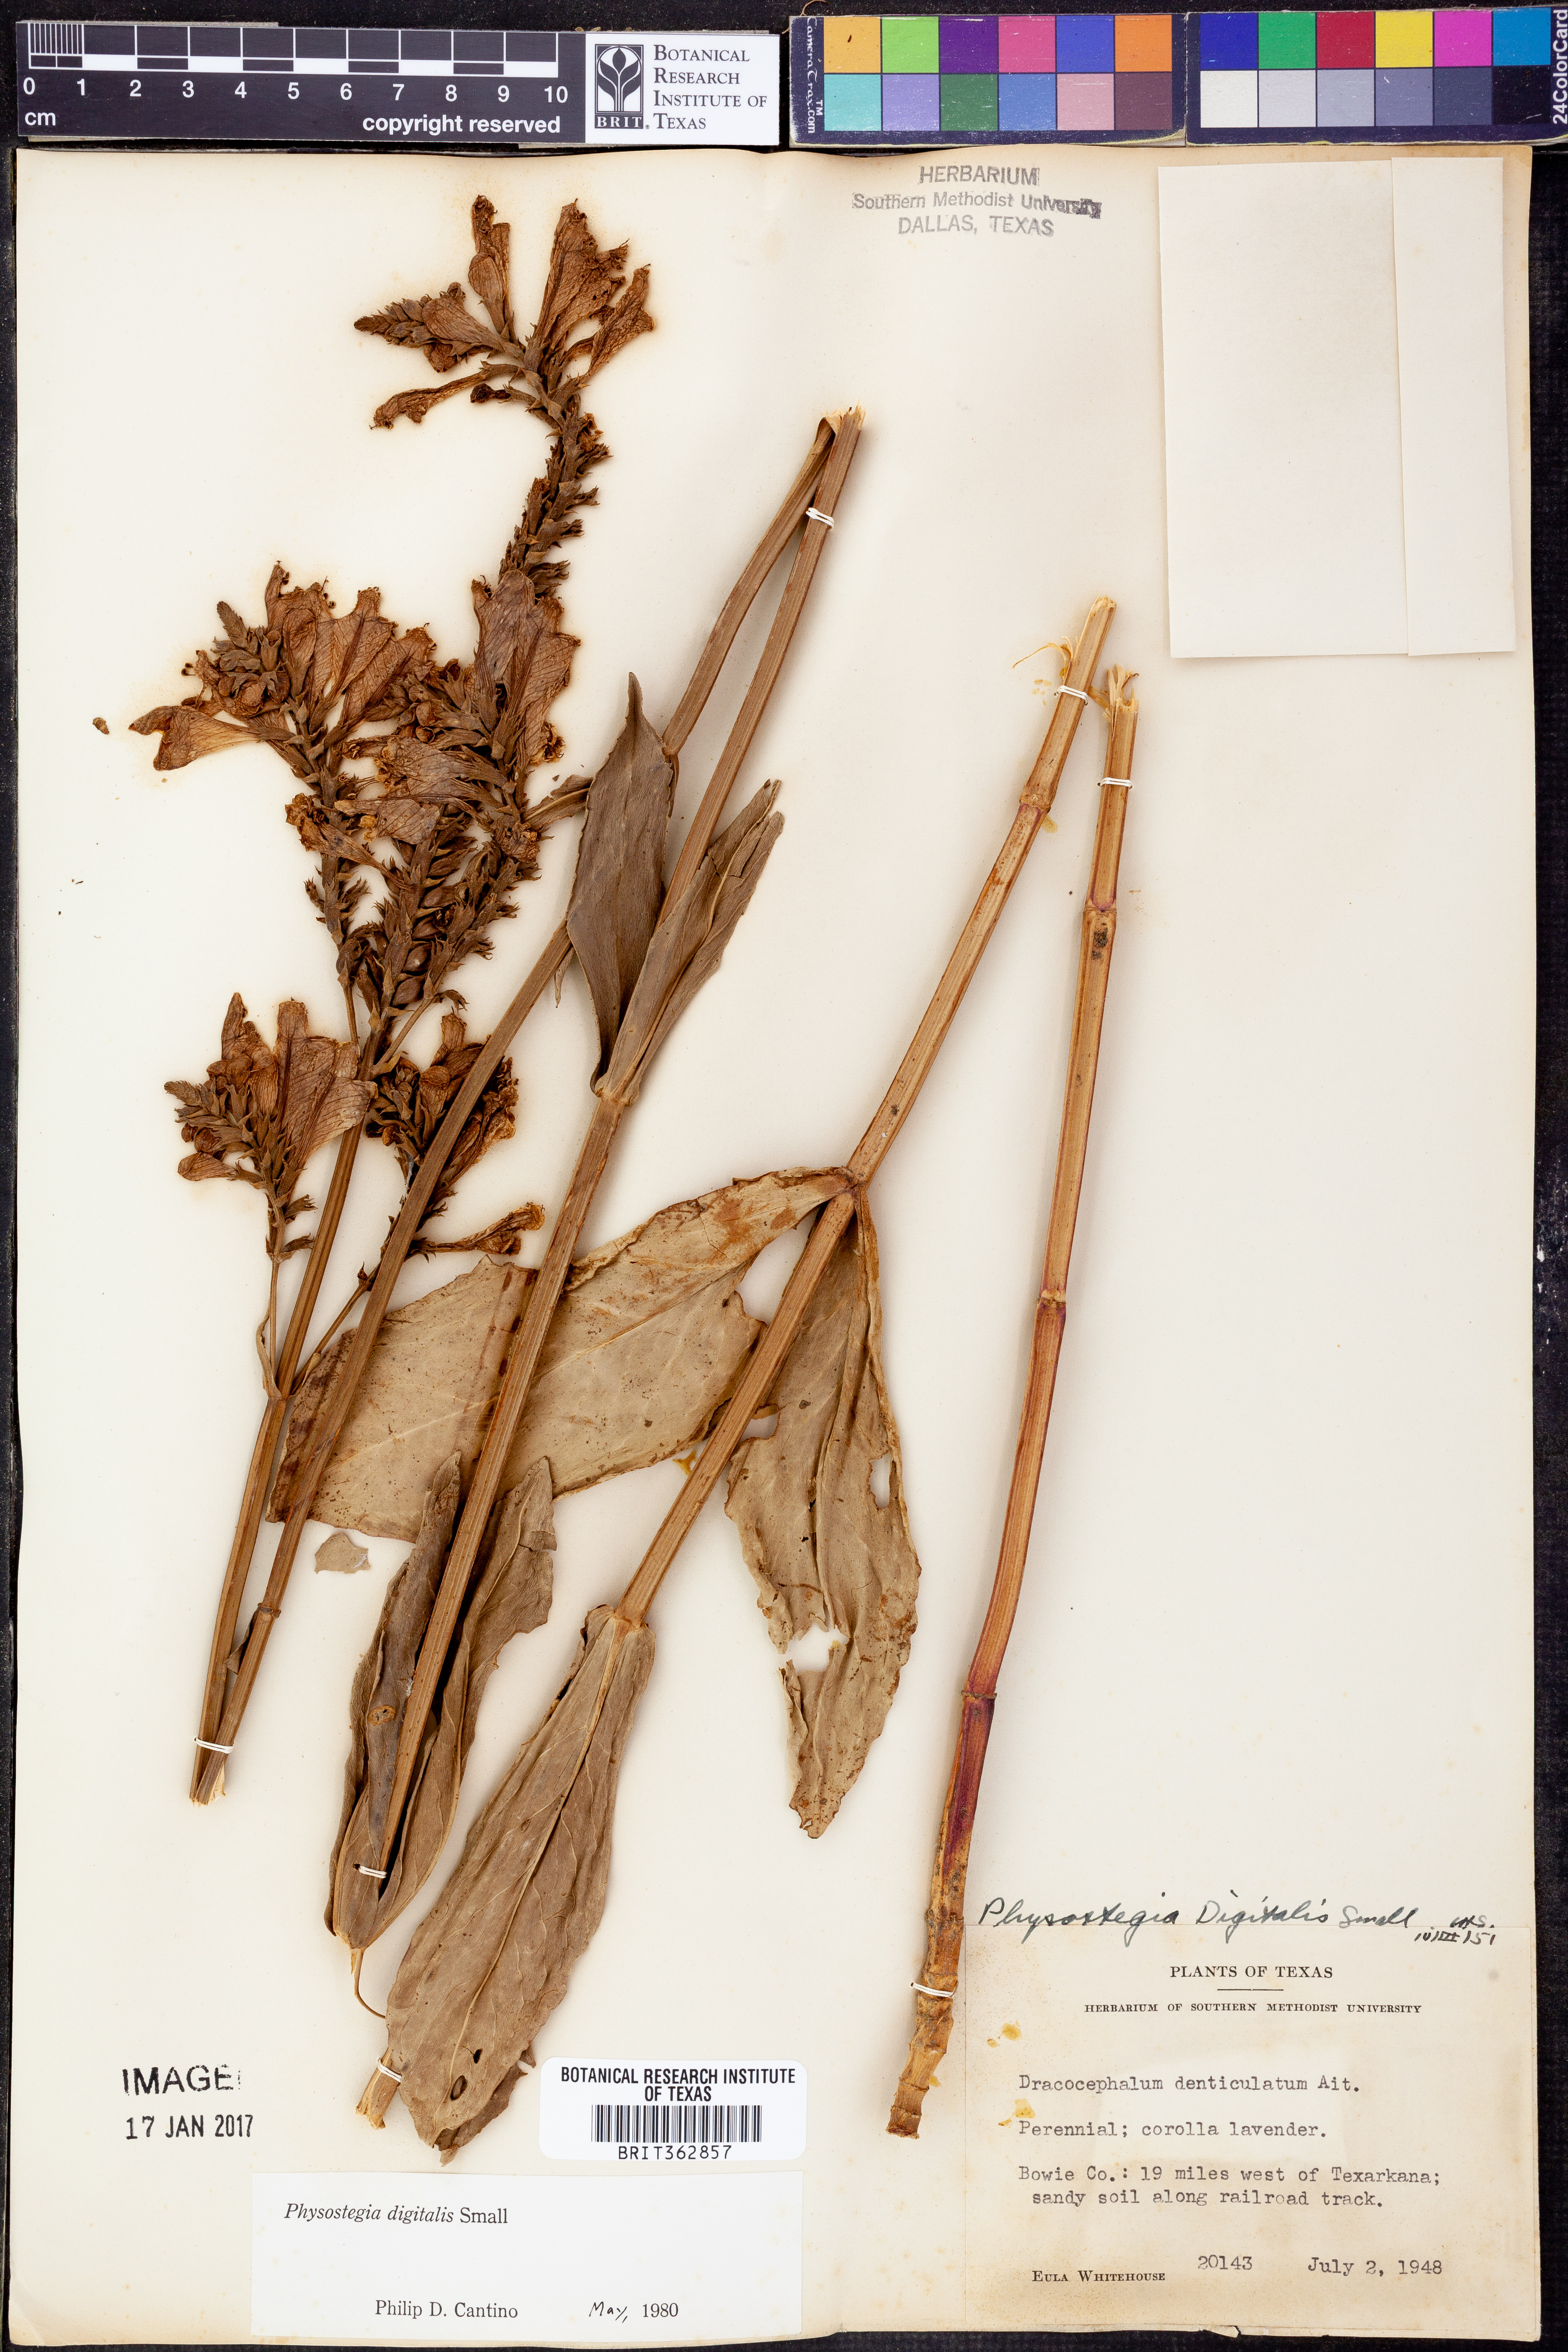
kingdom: Plantae
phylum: Tracheophyta
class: Magnoliopsida
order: Lamiales
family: Lamiaceae
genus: Physostegia
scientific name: Physostegia digitalis
